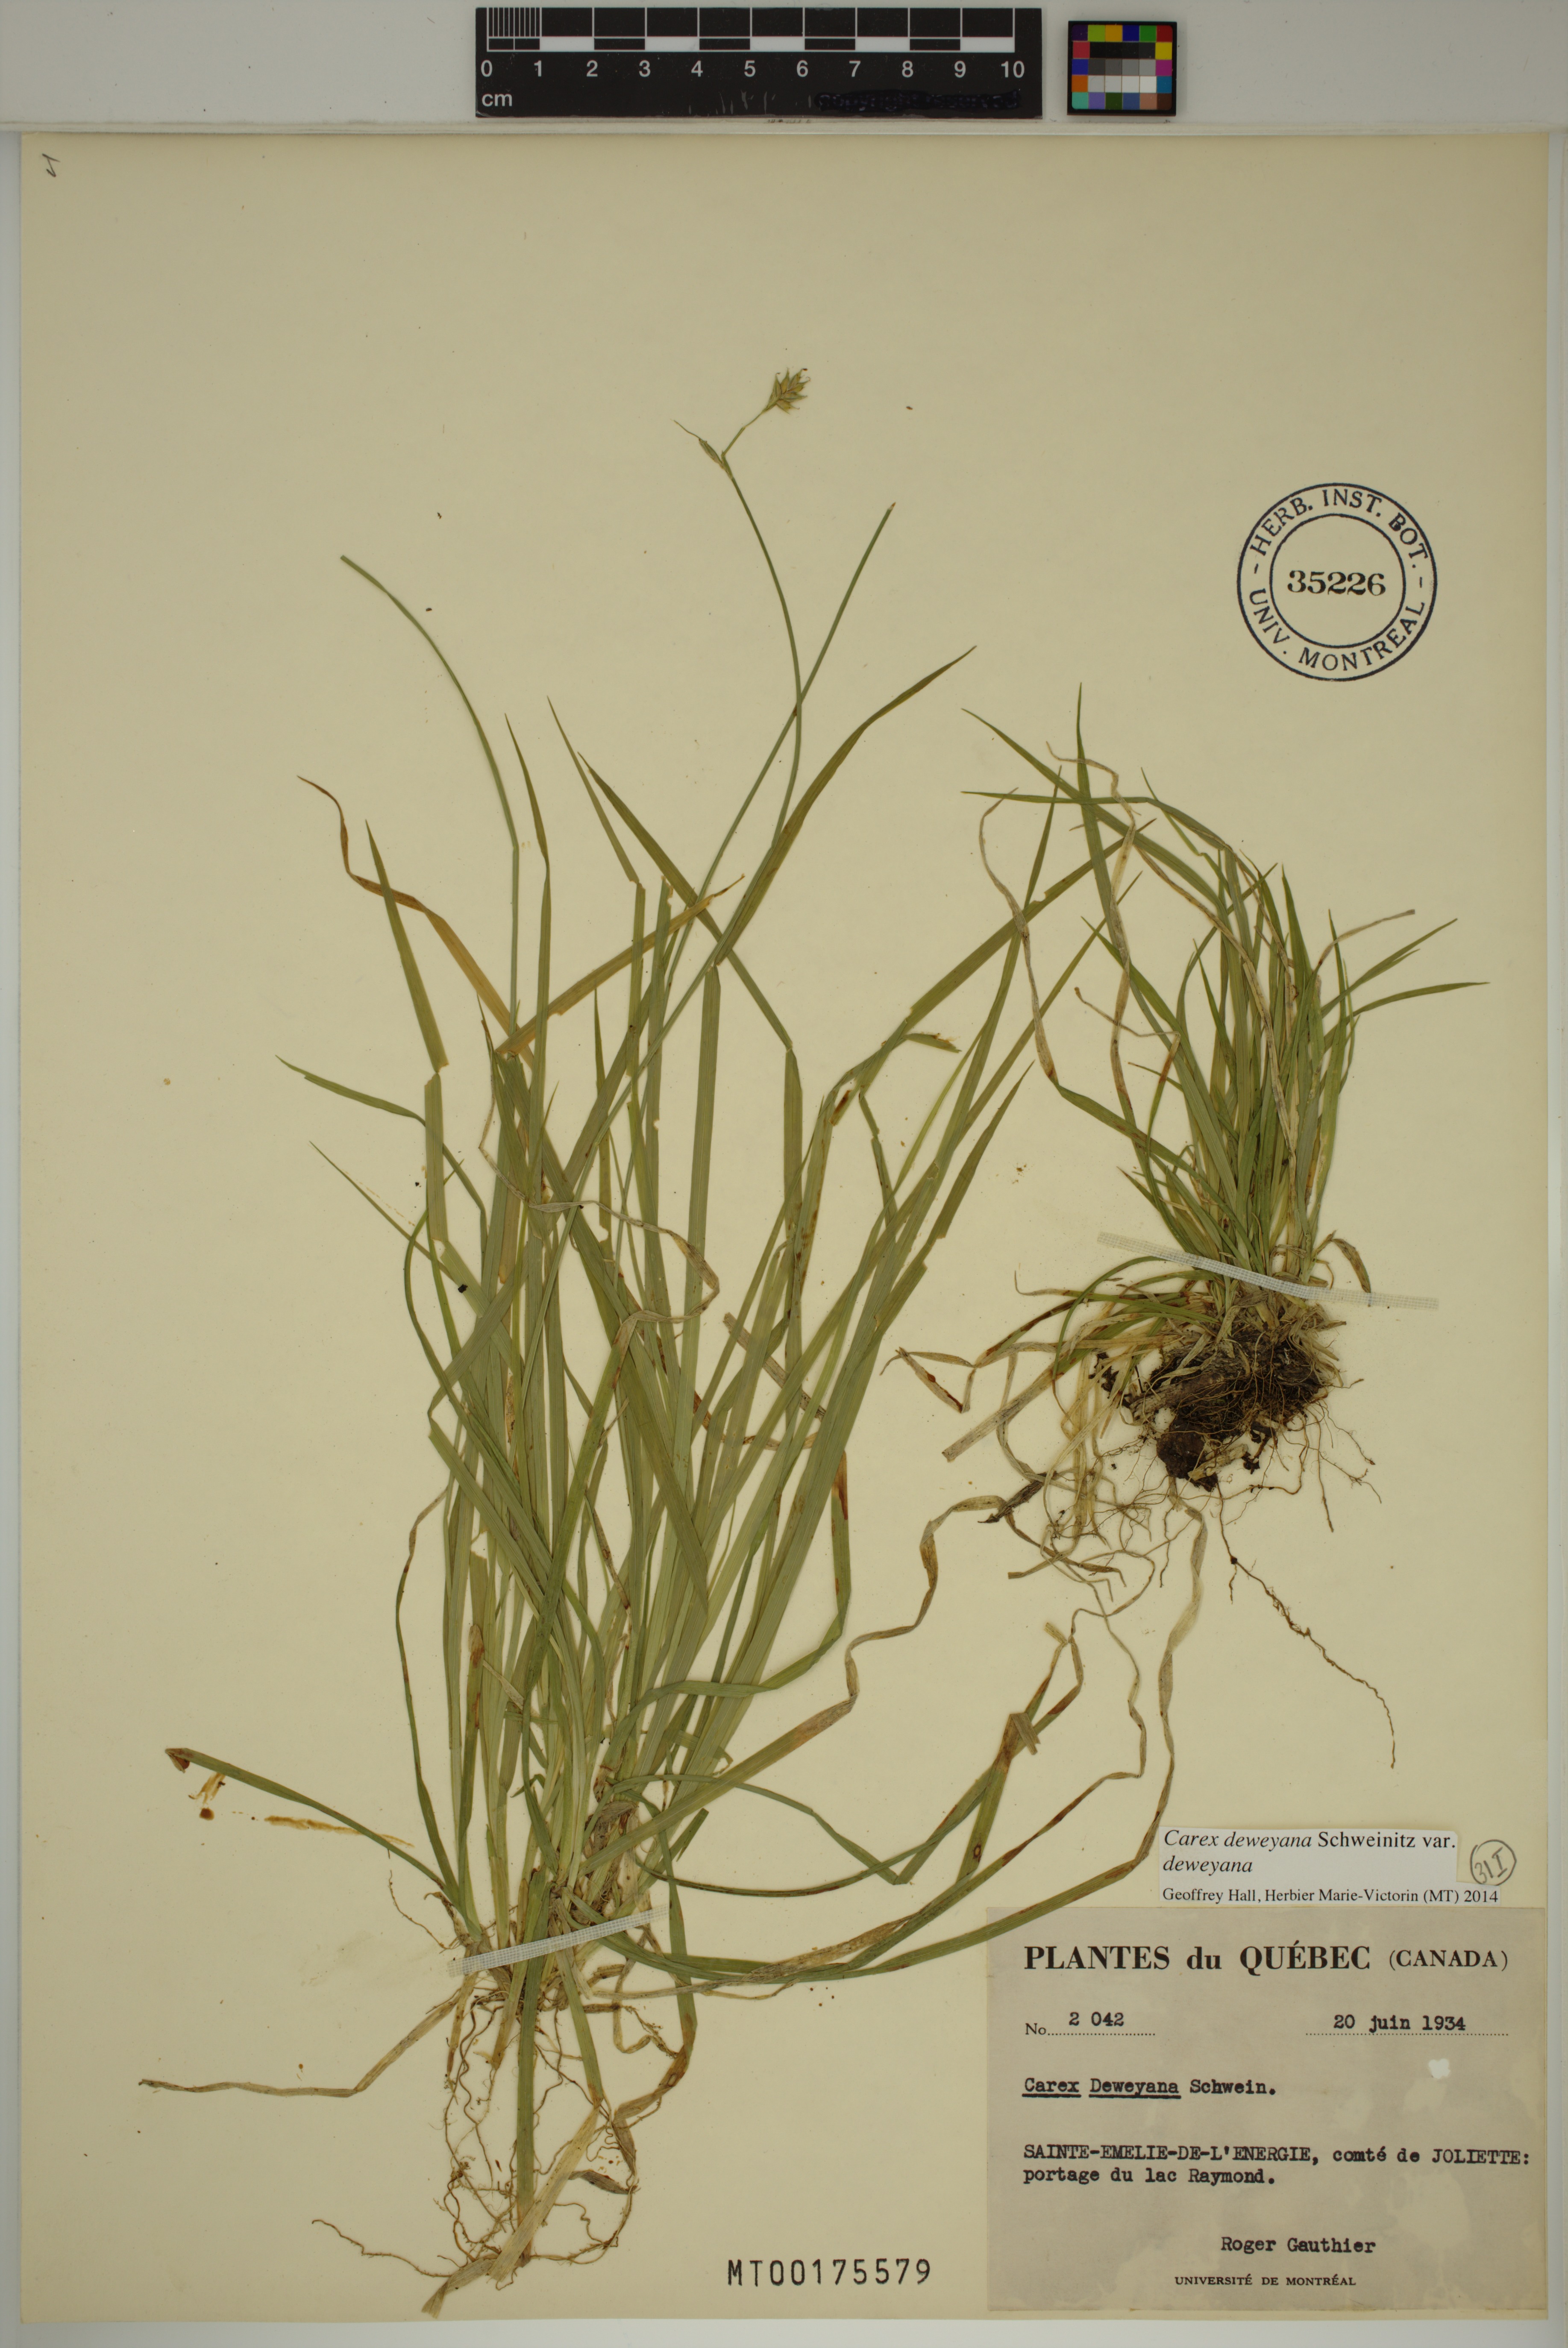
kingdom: Plantae
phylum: Tracheophyta
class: Liliopsida
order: Poales
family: Cyperaceae
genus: Carex
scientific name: Carex deweyana
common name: Dewey's sedge
